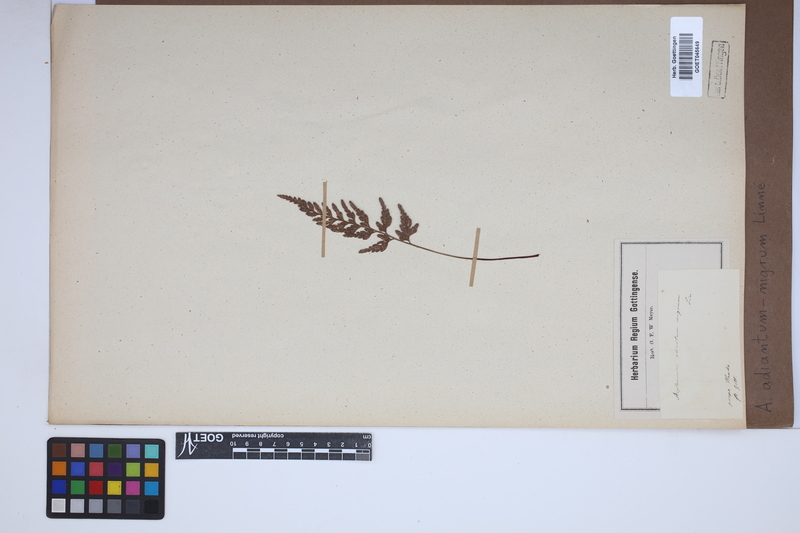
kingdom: Plantae
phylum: Tracheophyta
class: Polypodiopsida
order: Polypodiales
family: Aspleniaceae
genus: Asplenium
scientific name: Asplenium adiantum-nigrum
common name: Black spleenwort
